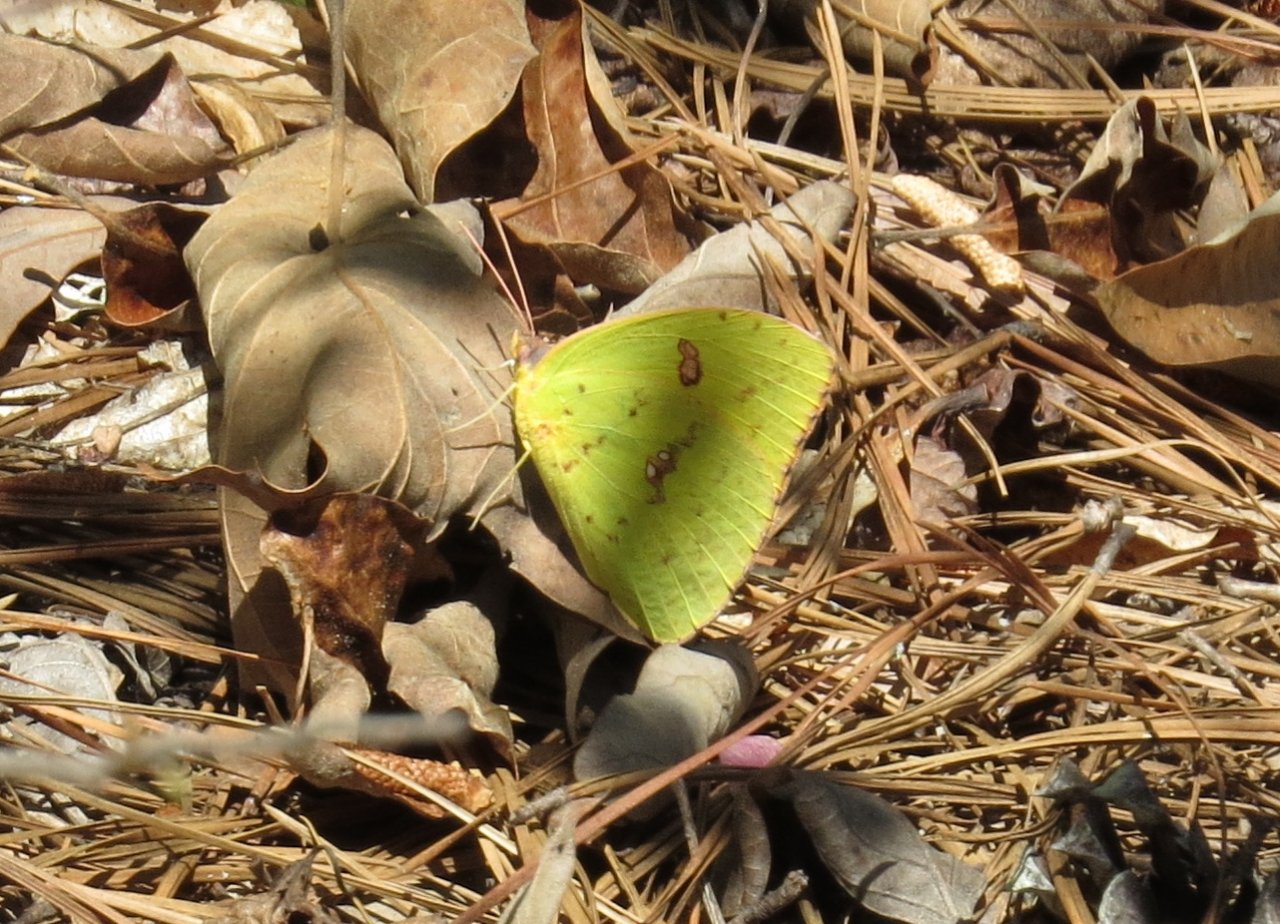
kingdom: Animalia
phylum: Arthropoda
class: Insecta
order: Lepidoptera
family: Pieridae
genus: Phoebis
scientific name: Phoebis sennae
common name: Cloudless Sulphur
